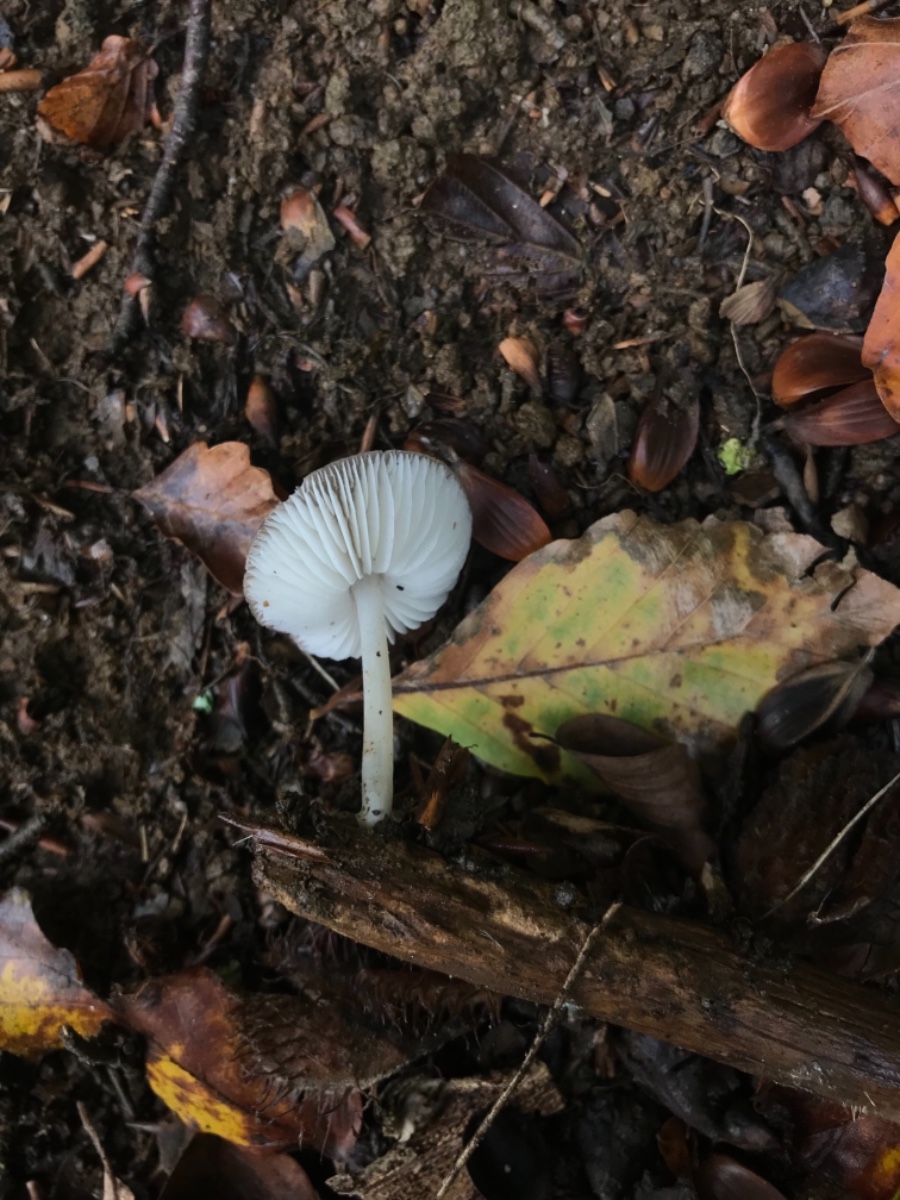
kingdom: Fungi
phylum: Basidiomycota
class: Agaricomycetes
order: Agaricales
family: Porotheleaceae
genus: Hydropodia
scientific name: Hydropodia subalpina
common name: vår-fnugfod
